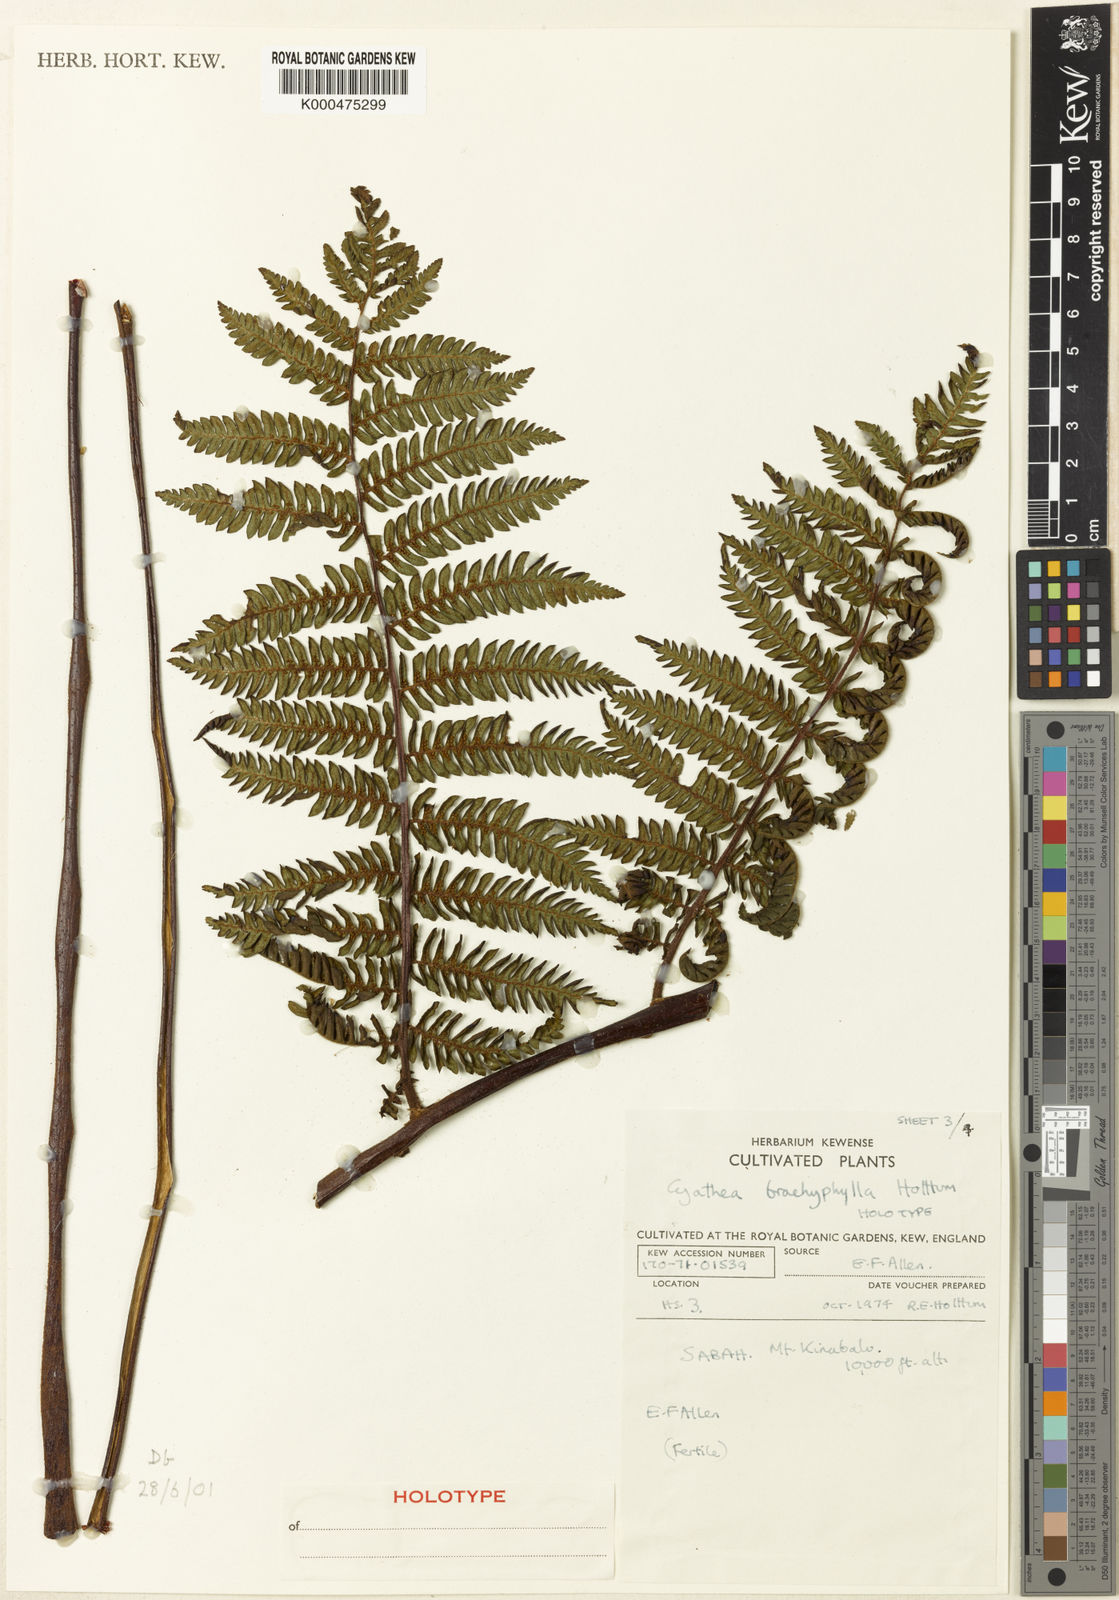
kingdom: Plantae
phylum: Tracheophyta
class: Polypodiopsida
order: Cyatheales
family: Cyatheaceae
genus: Alsophila
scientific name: Alsophila brachyphylla
